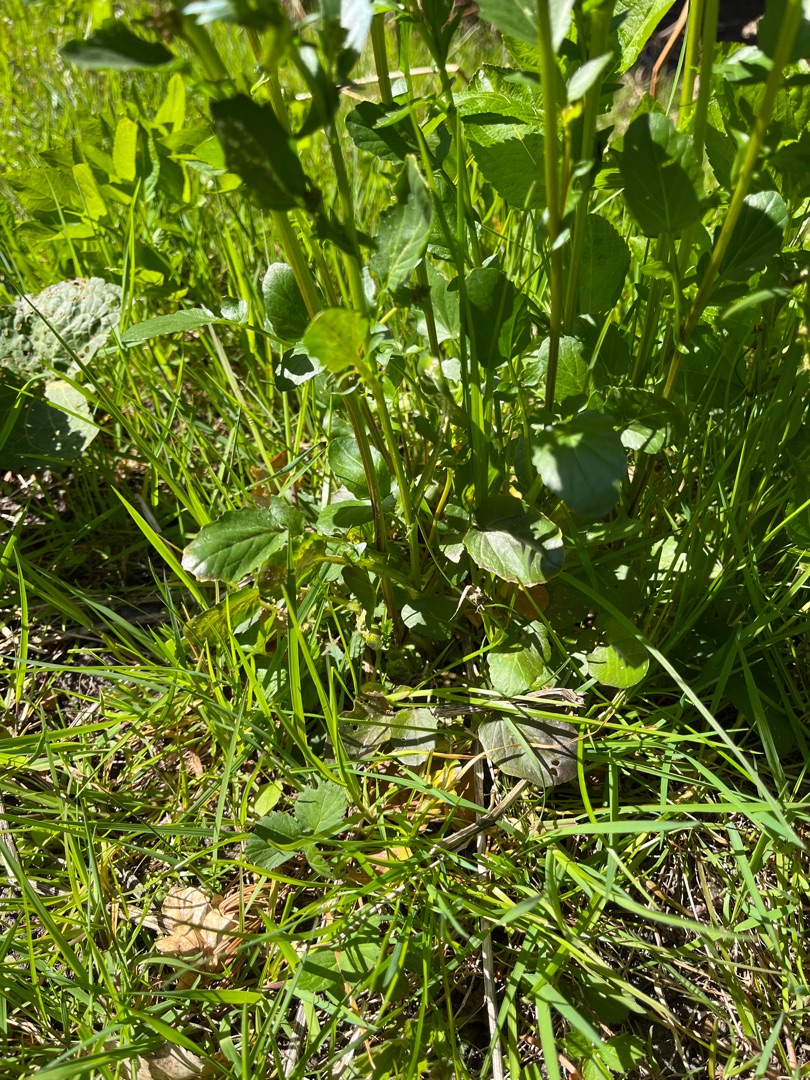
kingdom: Plantae
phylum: Tracheophyta
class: Magnoliopsida
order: Brassicales
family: Brassicaceae
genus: Barbarea
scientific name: Barbarea vulgaris
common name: Almindelig vinterkarse
